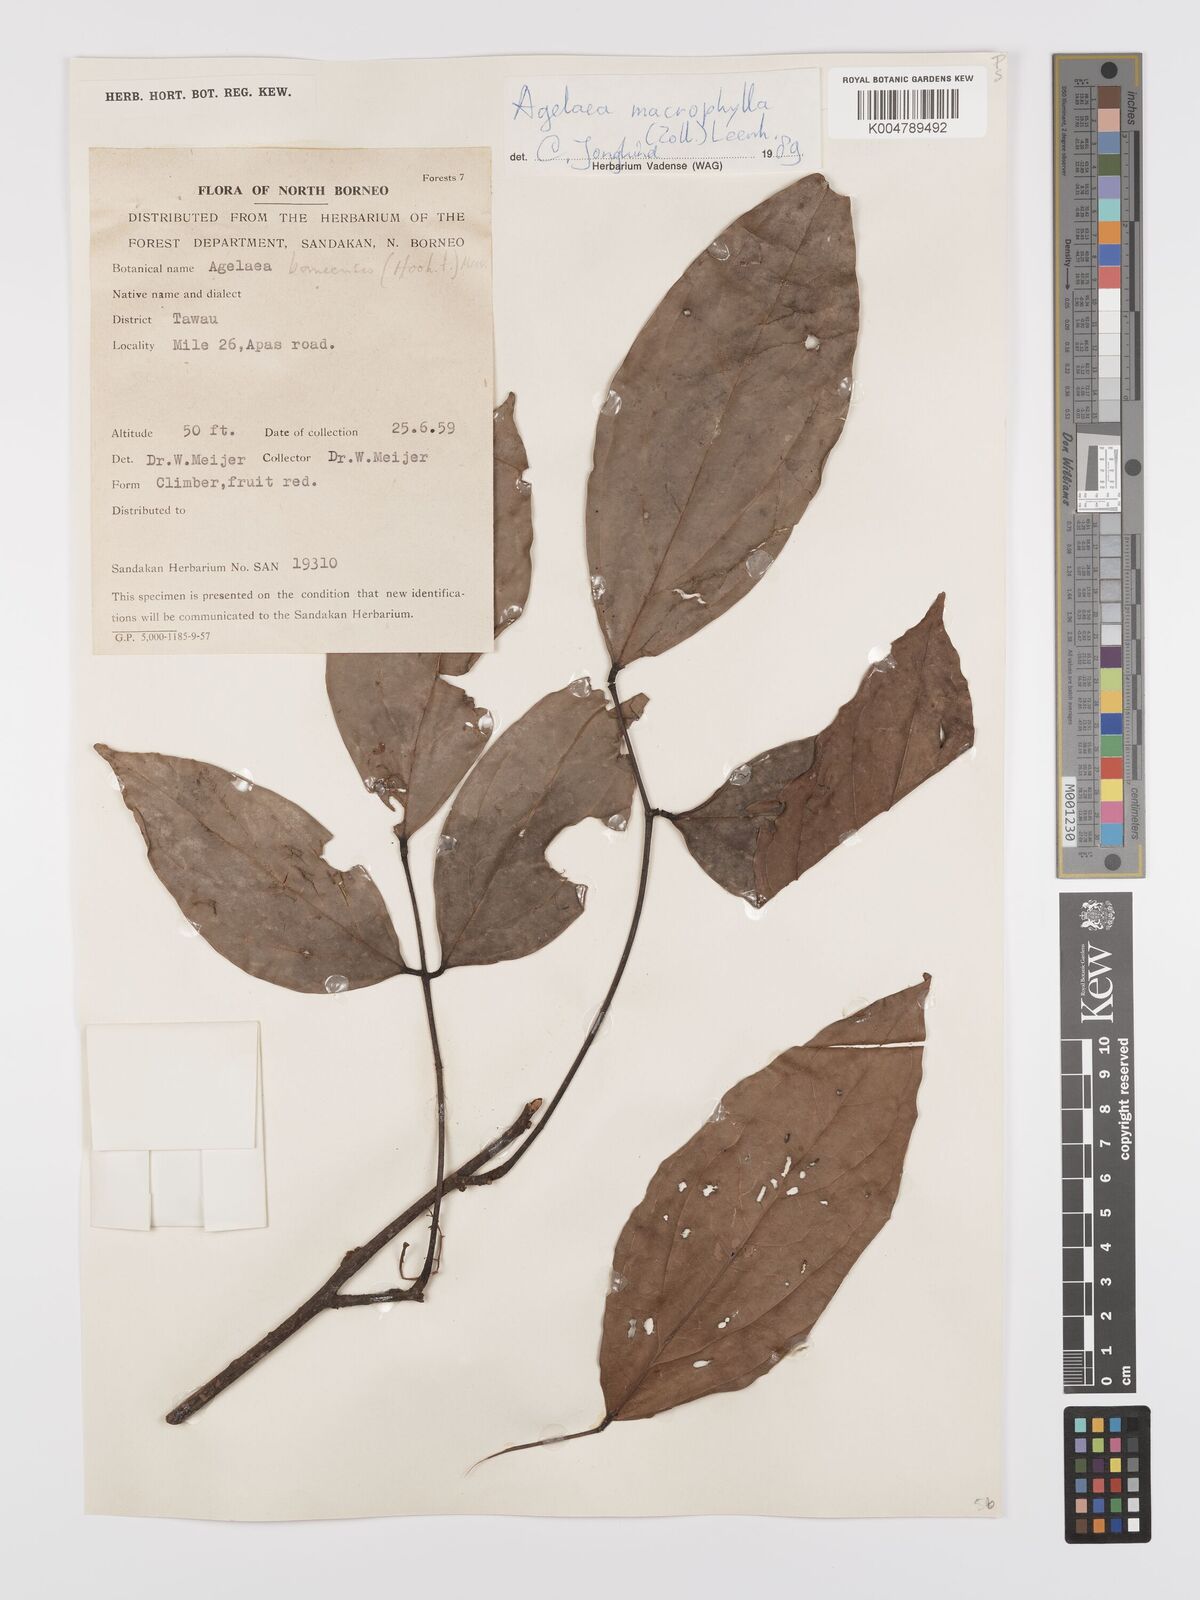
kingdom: Plantae
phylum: Tracheophyta
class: Magnoliopsida
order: Oxalidales
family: Connaraceae
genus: Agelaea
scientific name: Agelaea macrophylla
